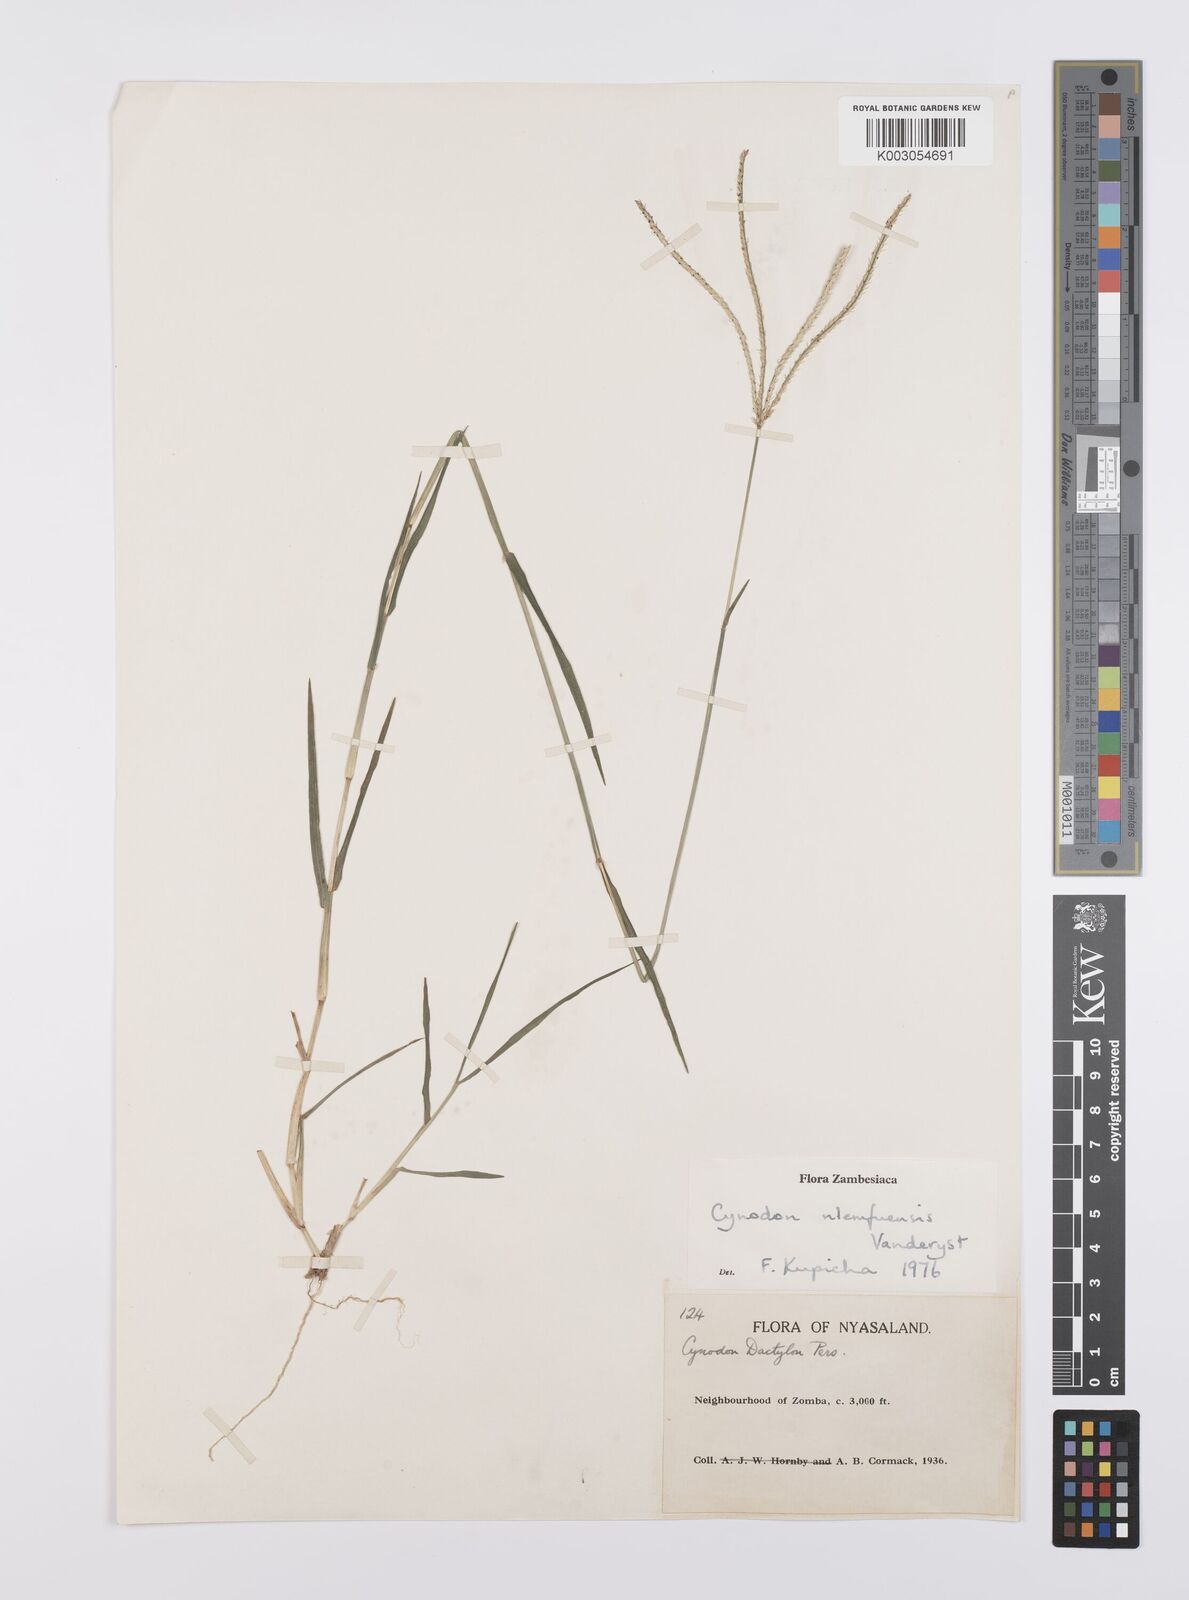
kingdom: Plantae
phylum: Tracheophyta
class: Liliopsida
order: Poales
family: Poaceae
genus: Cynodon
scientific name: Cynodon nlemfuensis
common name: African bermudagrass
